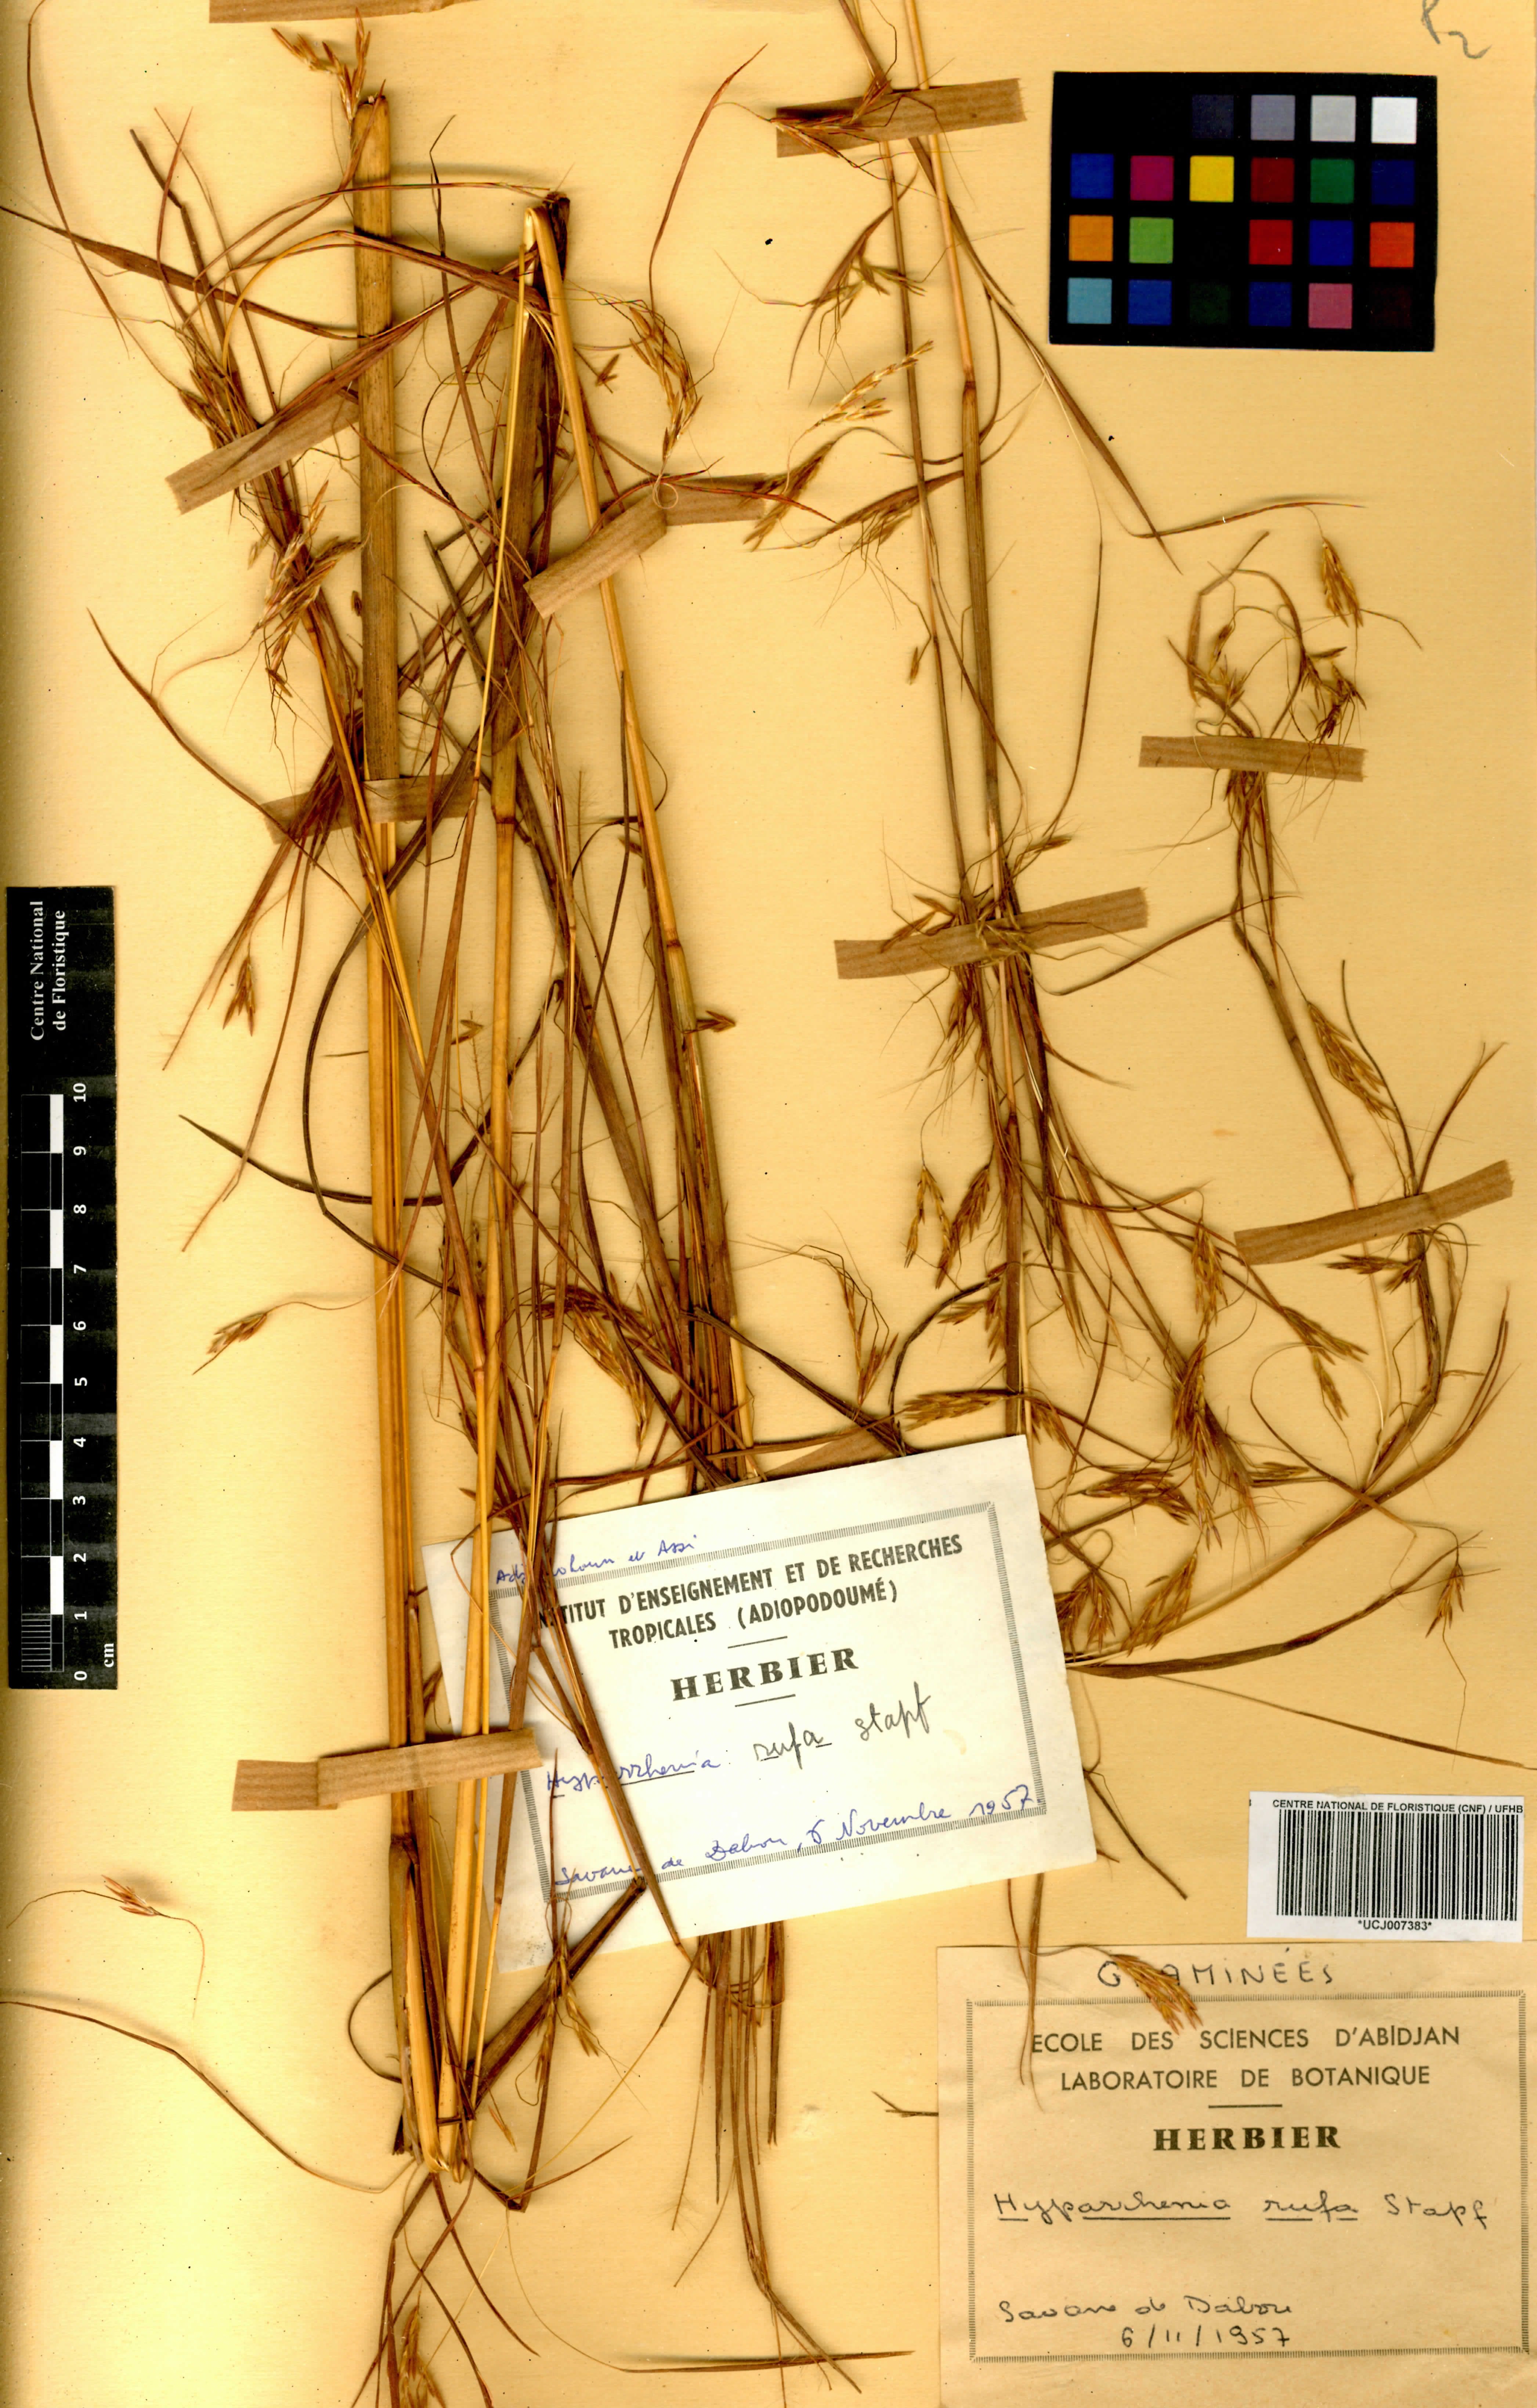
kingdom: Plantae
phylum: Tracheophyta
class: Liliopsida
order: Poales
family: Poaceae
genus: Hyparrhenia
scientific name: Hyparrhenia rufa
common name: Jaraguagrass
